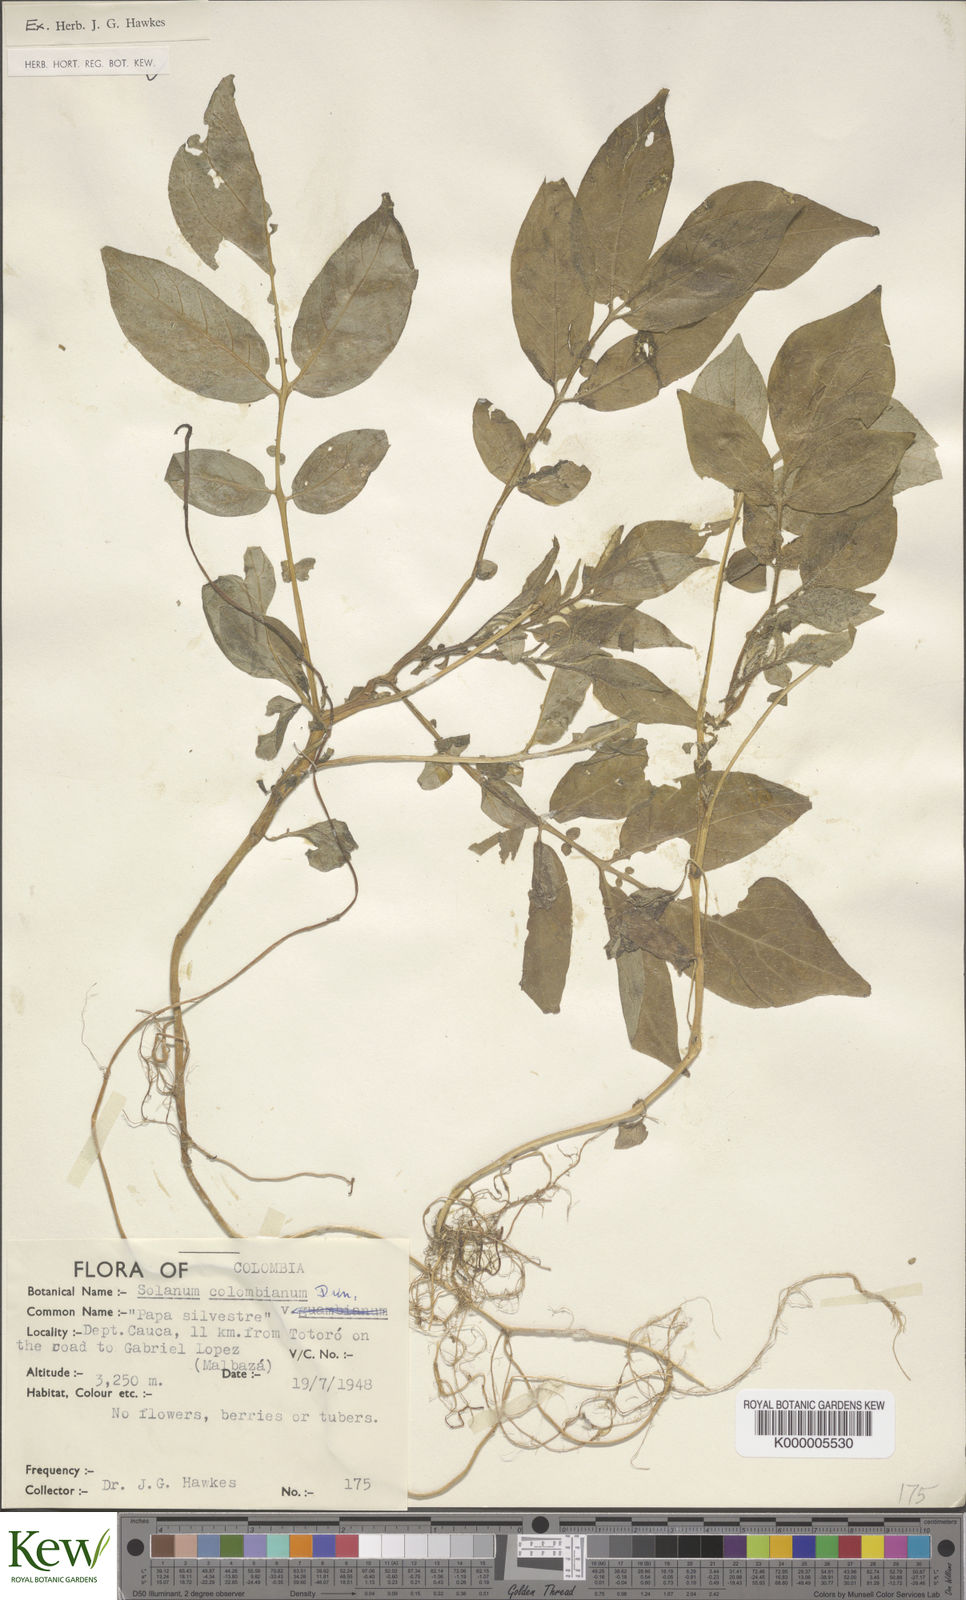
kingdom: Plantae
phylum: Tracheophyta
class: Magnoliopsida
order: Solanales
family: Solanaceae
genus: Solanum
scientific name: Solanum colombianum
